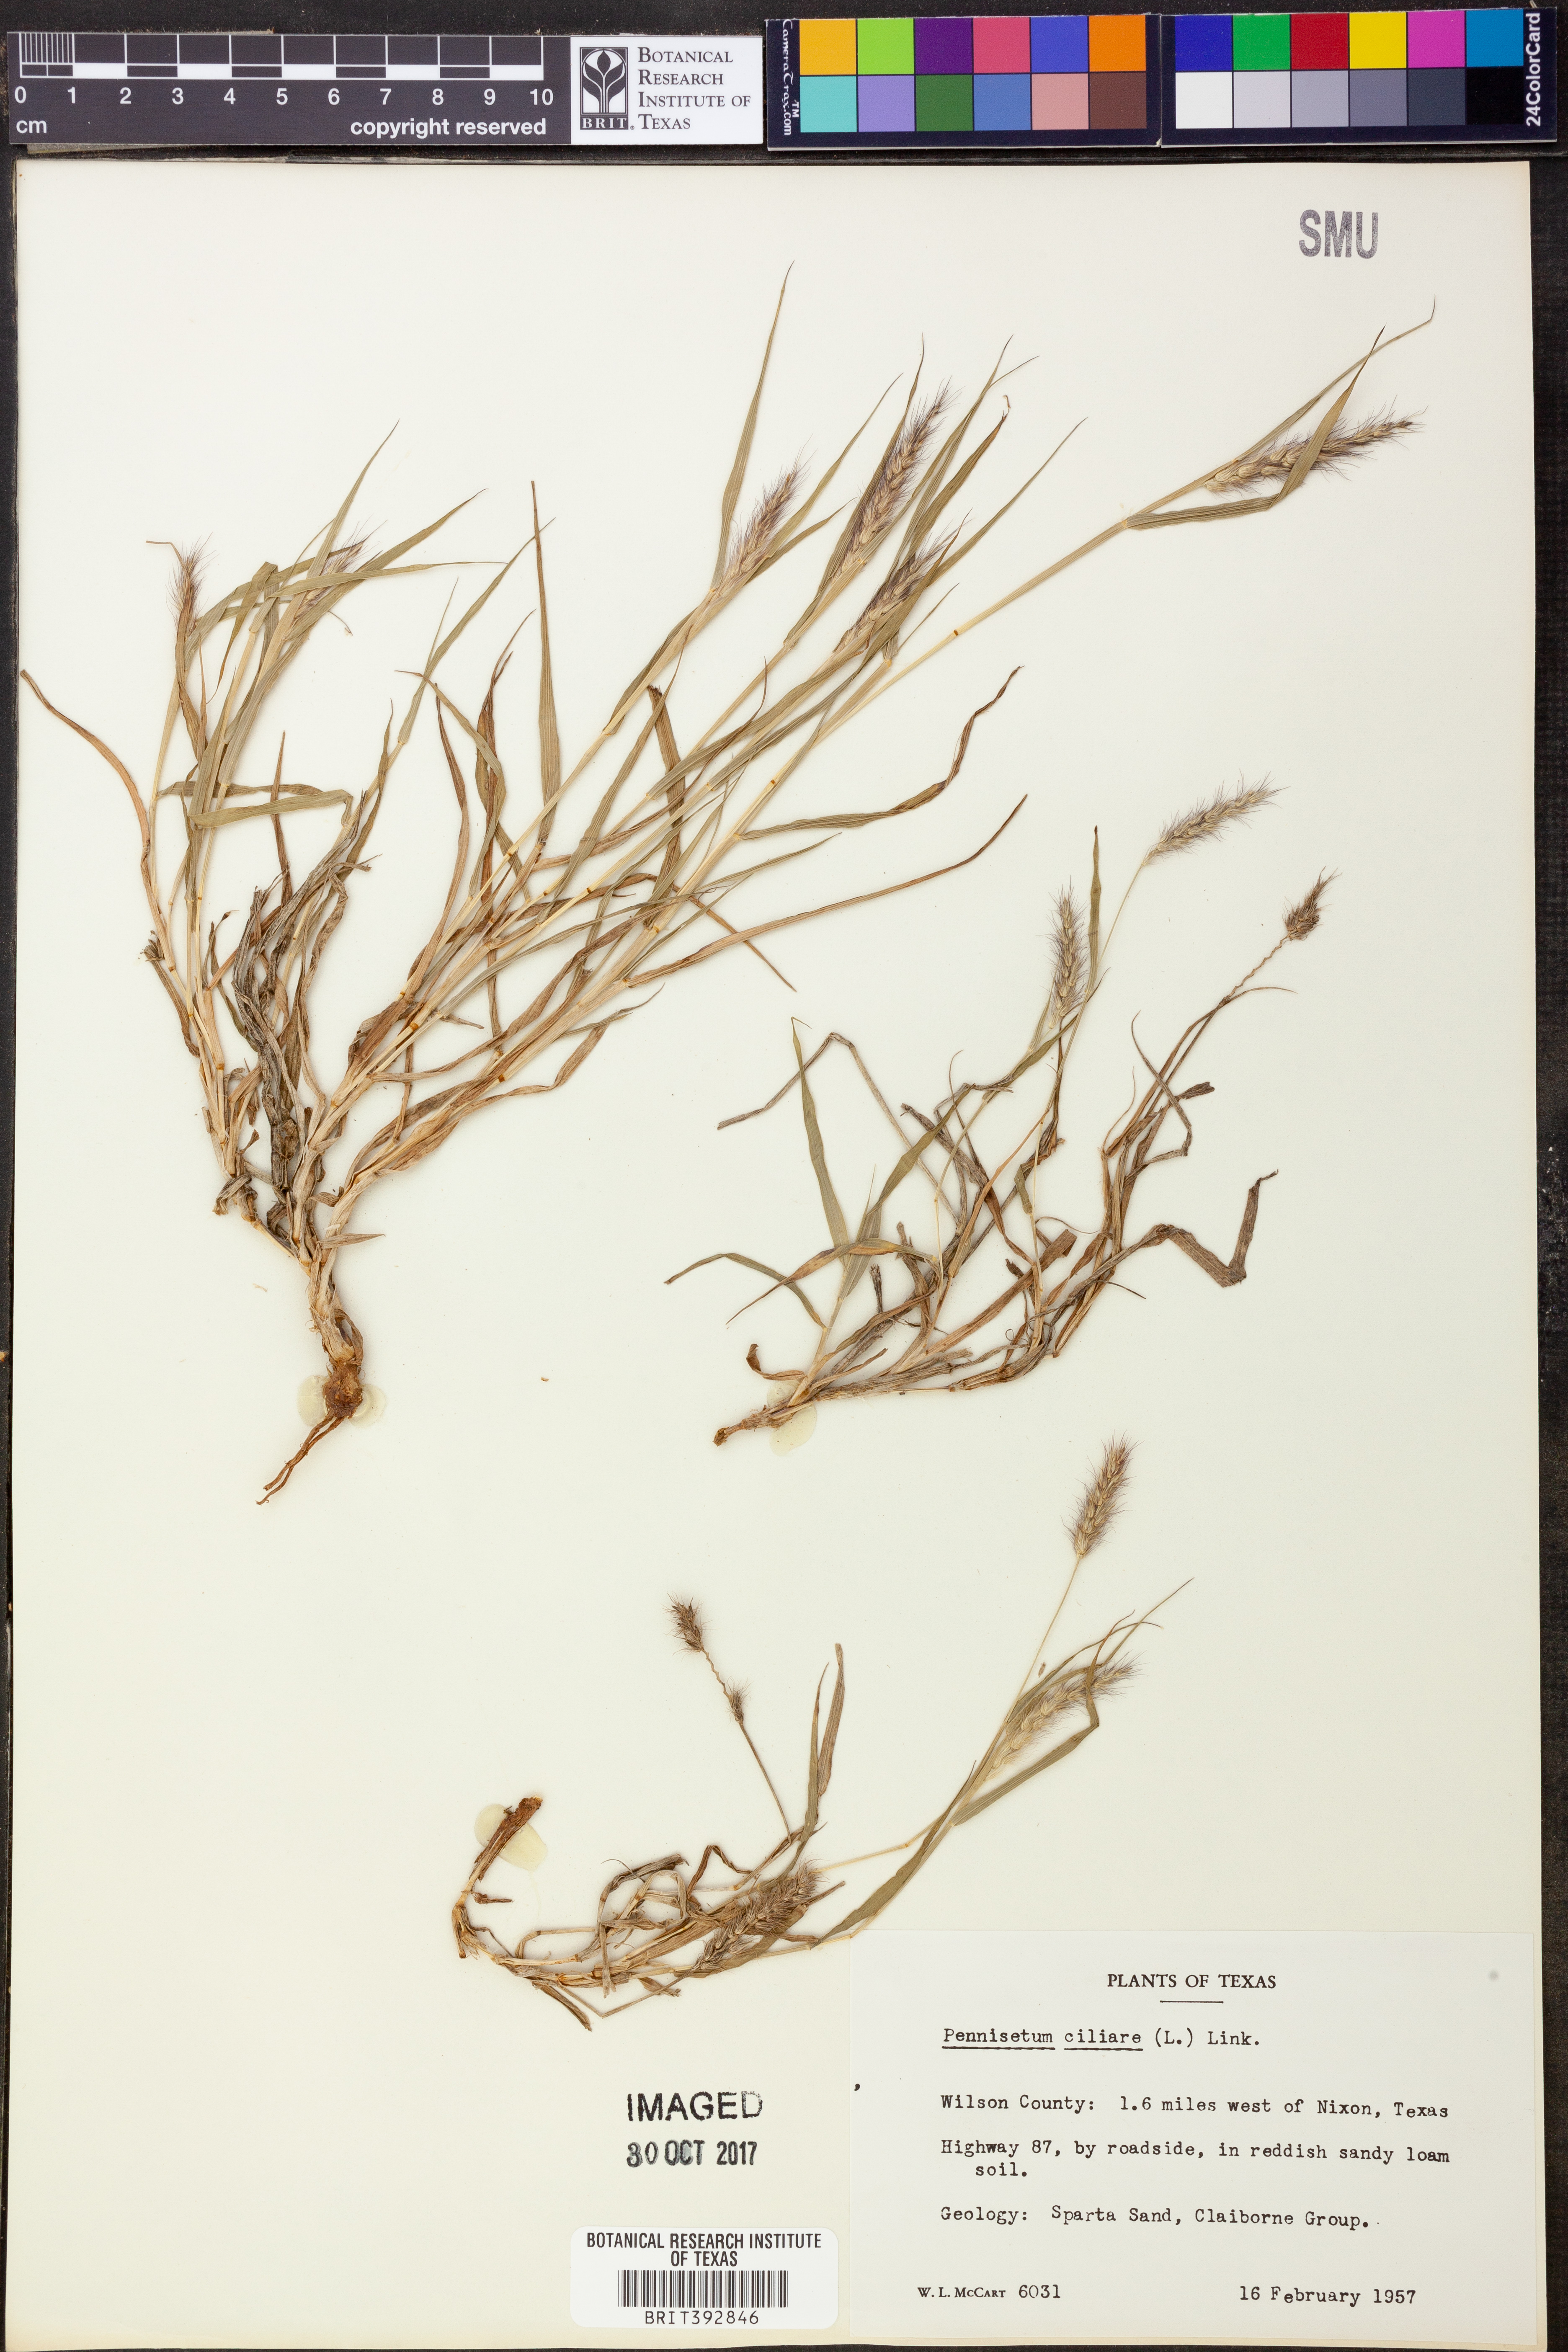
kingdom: Plantae
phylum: Tracheophyta
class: Liliopsida
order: Poales
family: Poaceae
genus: Cenchrus
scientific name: Cenchrus ciliaris
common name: Buffelgrass
